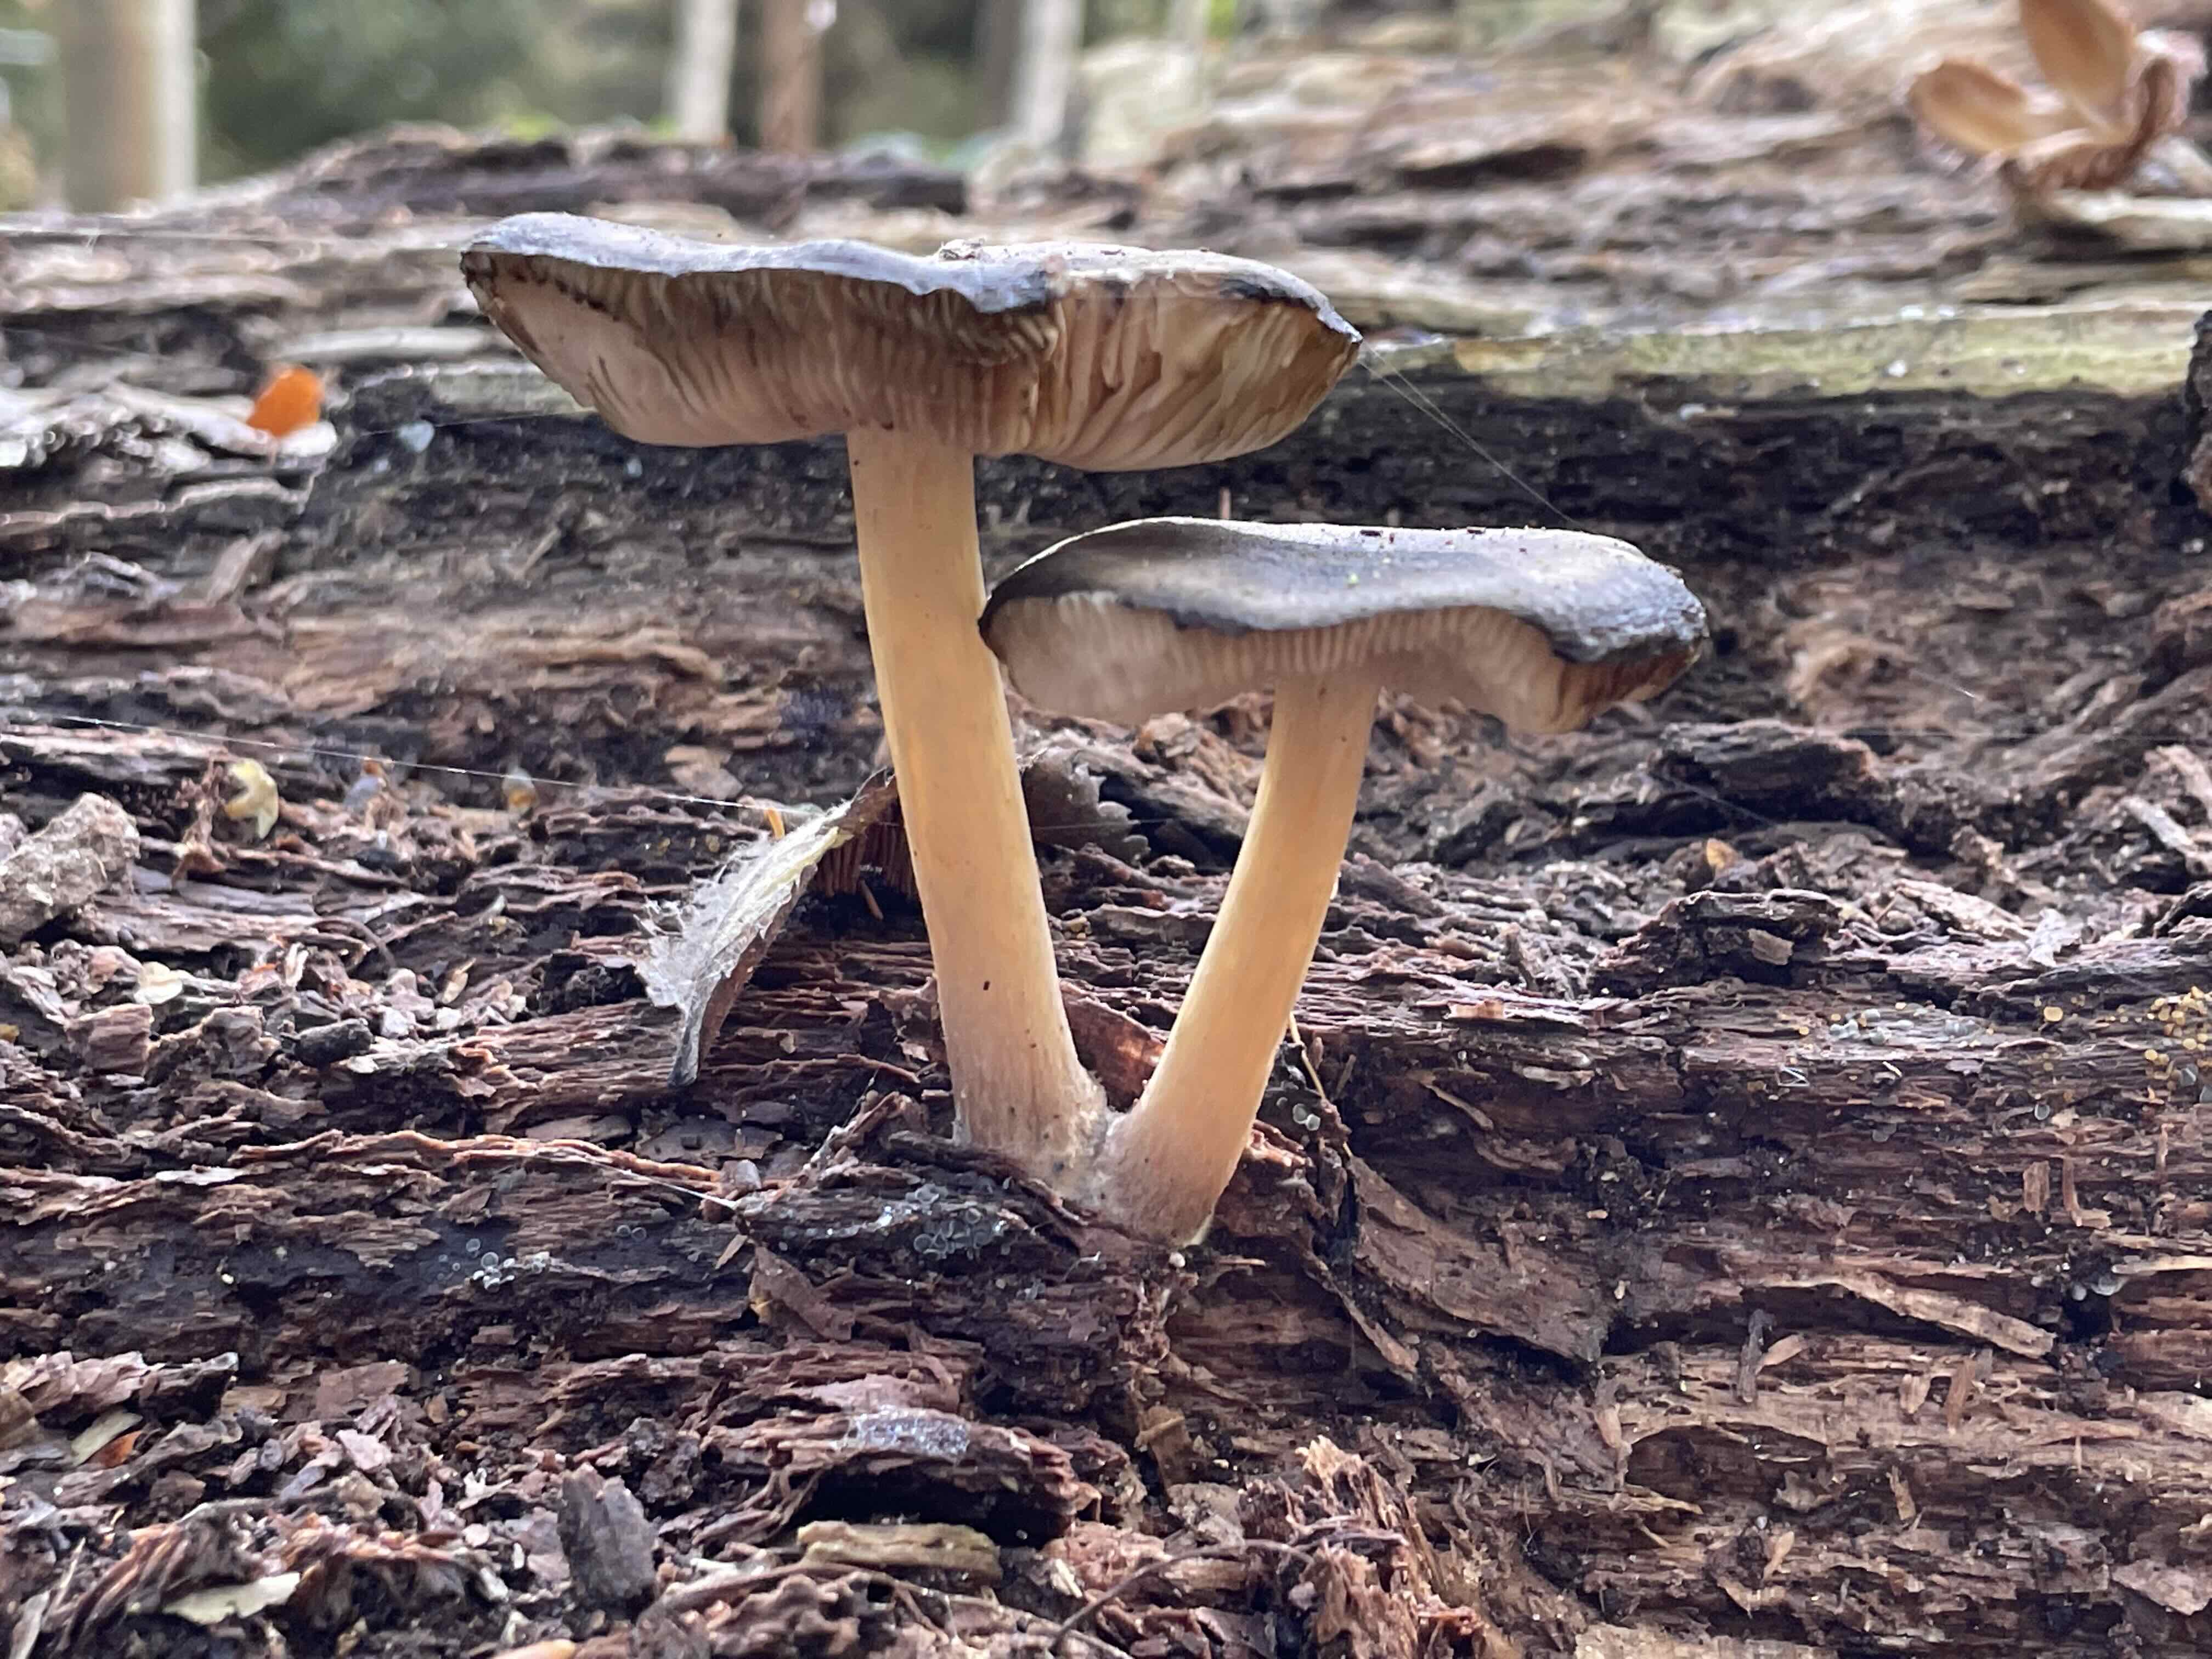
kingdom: Fungi
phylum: Basidiomycota
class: Agaricomycetes
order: Agaricales
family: Pluteaceae
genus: Pluteus
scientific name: Pluteus
